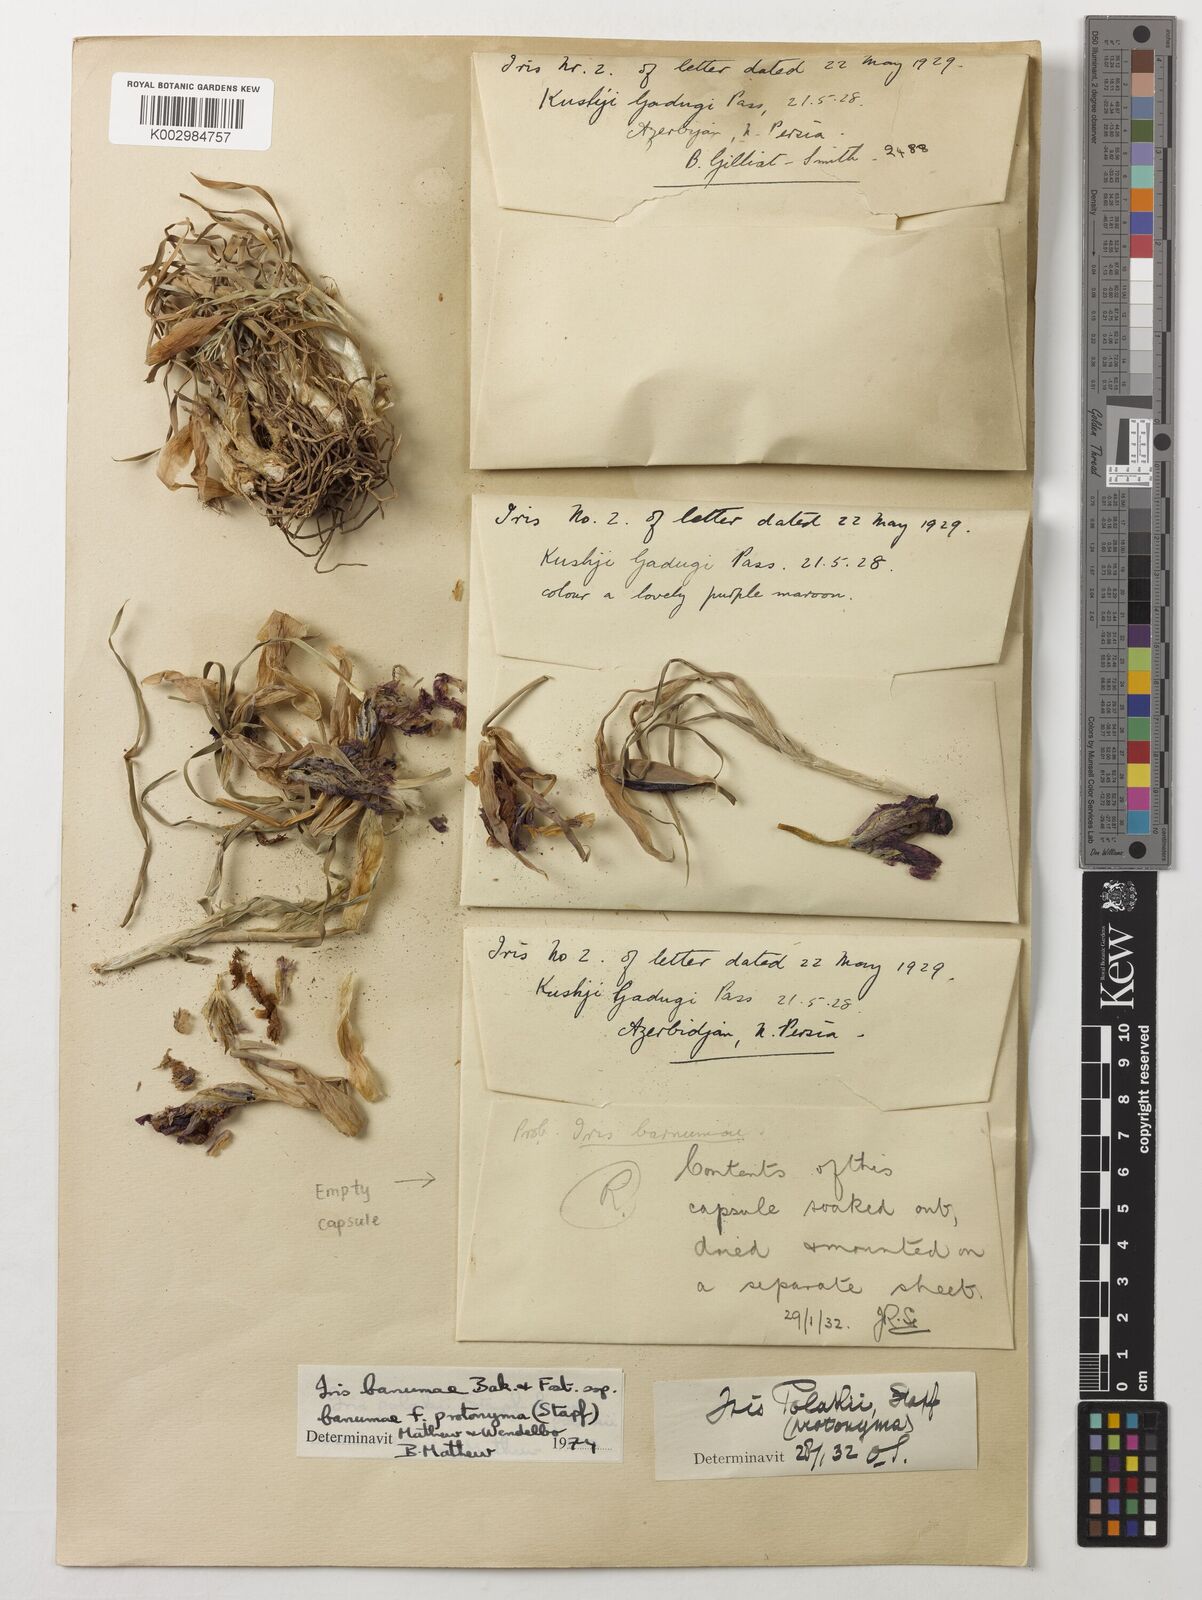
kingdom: Plantae
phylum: Tracheophyta
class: Liliopsida
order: Asparagales
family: Iridaceae
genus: Iris
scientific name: Iris polakii
